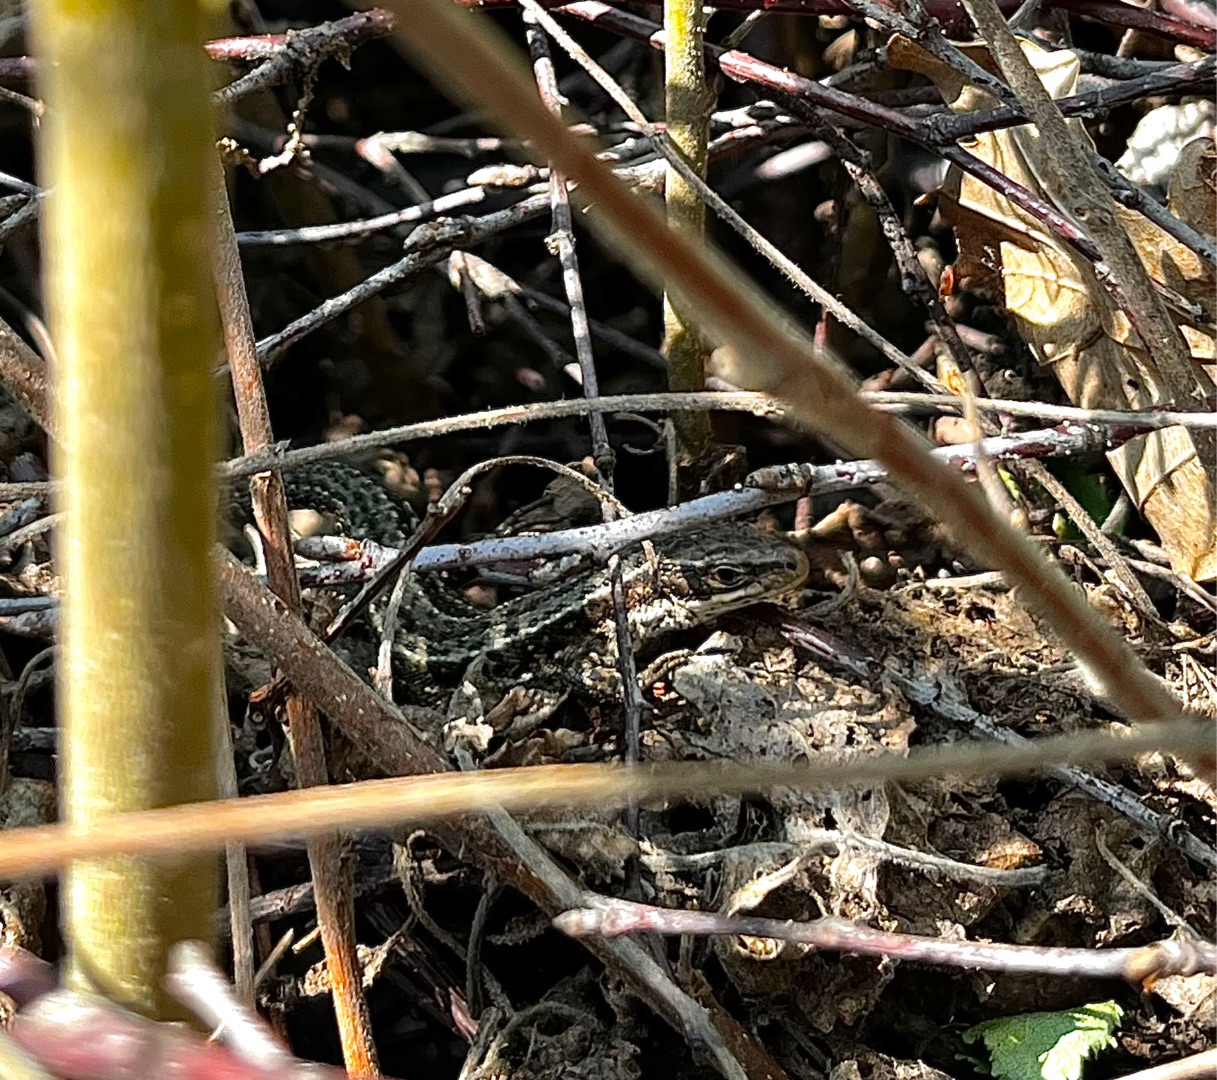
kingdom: Animalia
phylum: Chordata
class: Squamata
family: Lacertidae
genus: Zootoca
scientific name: Zootoca vivipara
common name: Skovfirben
